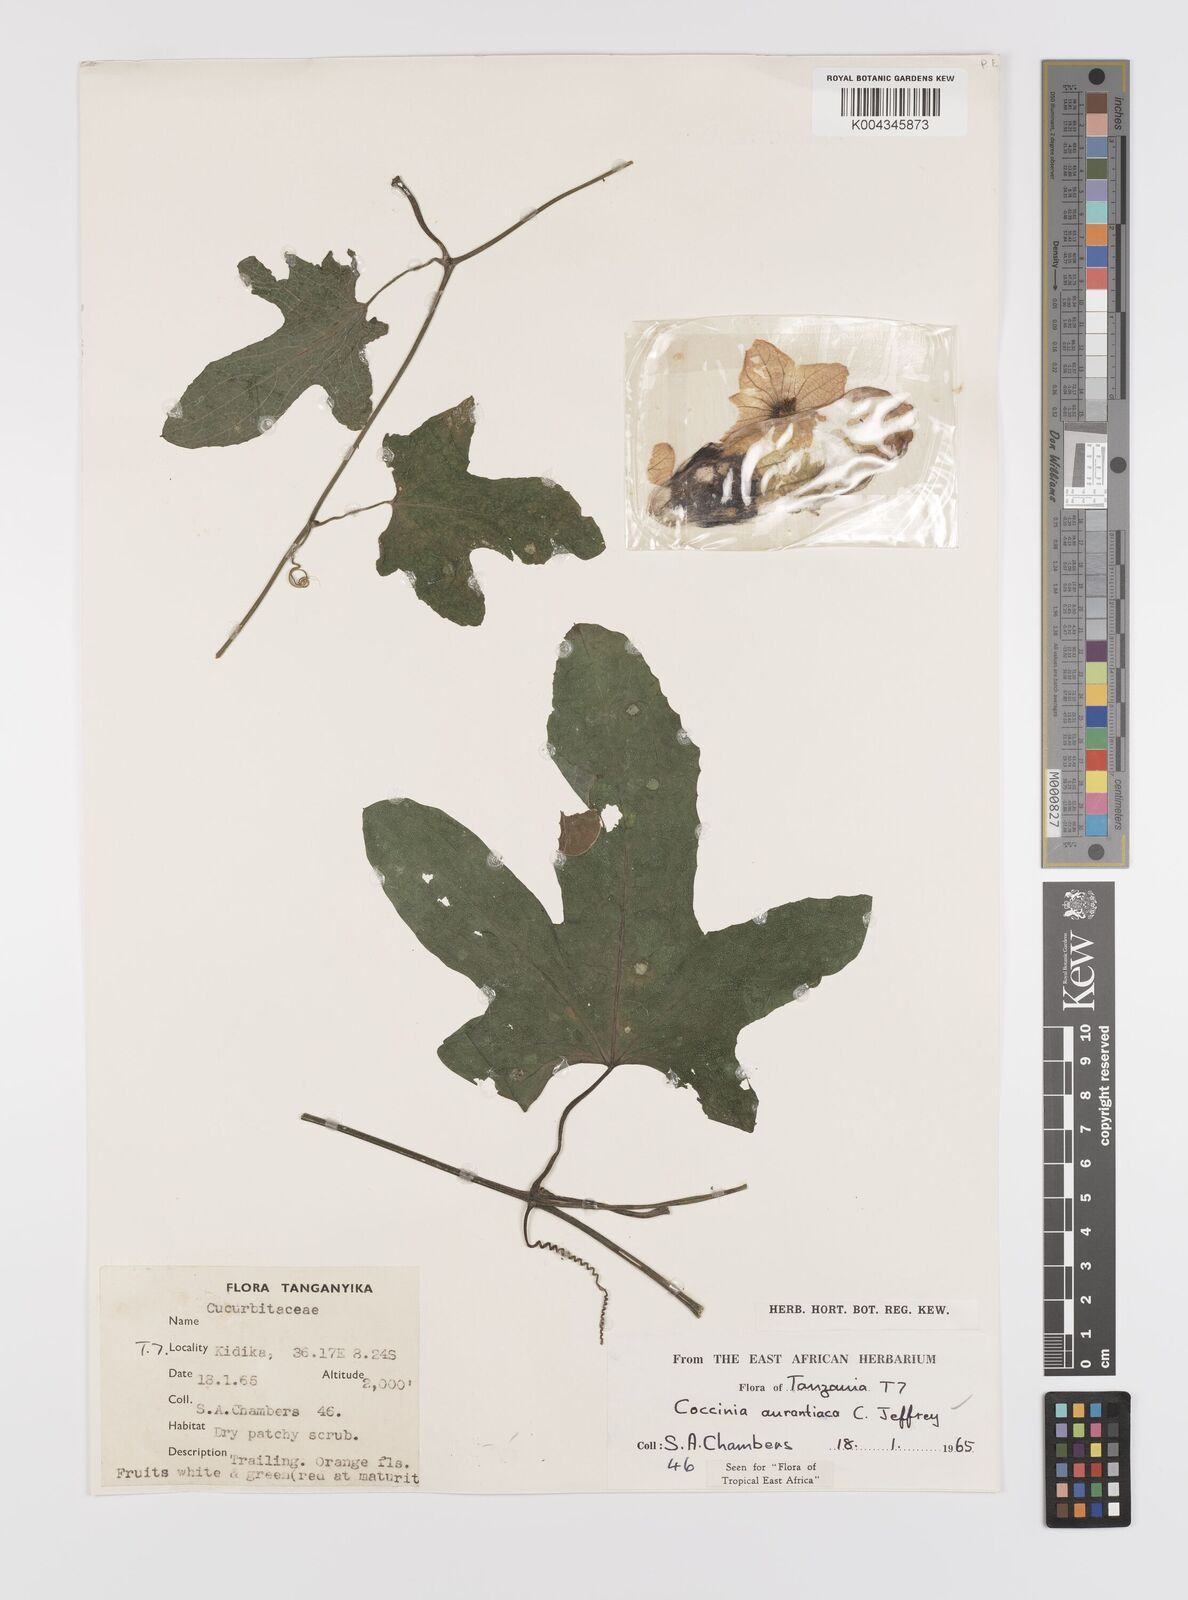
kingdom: Plantae
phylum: Tracheophyta
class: Magnoliopsida
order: Cucurbitales
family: Cucurbitaceae
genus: Coccinia
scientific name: Coccinia adoensis
